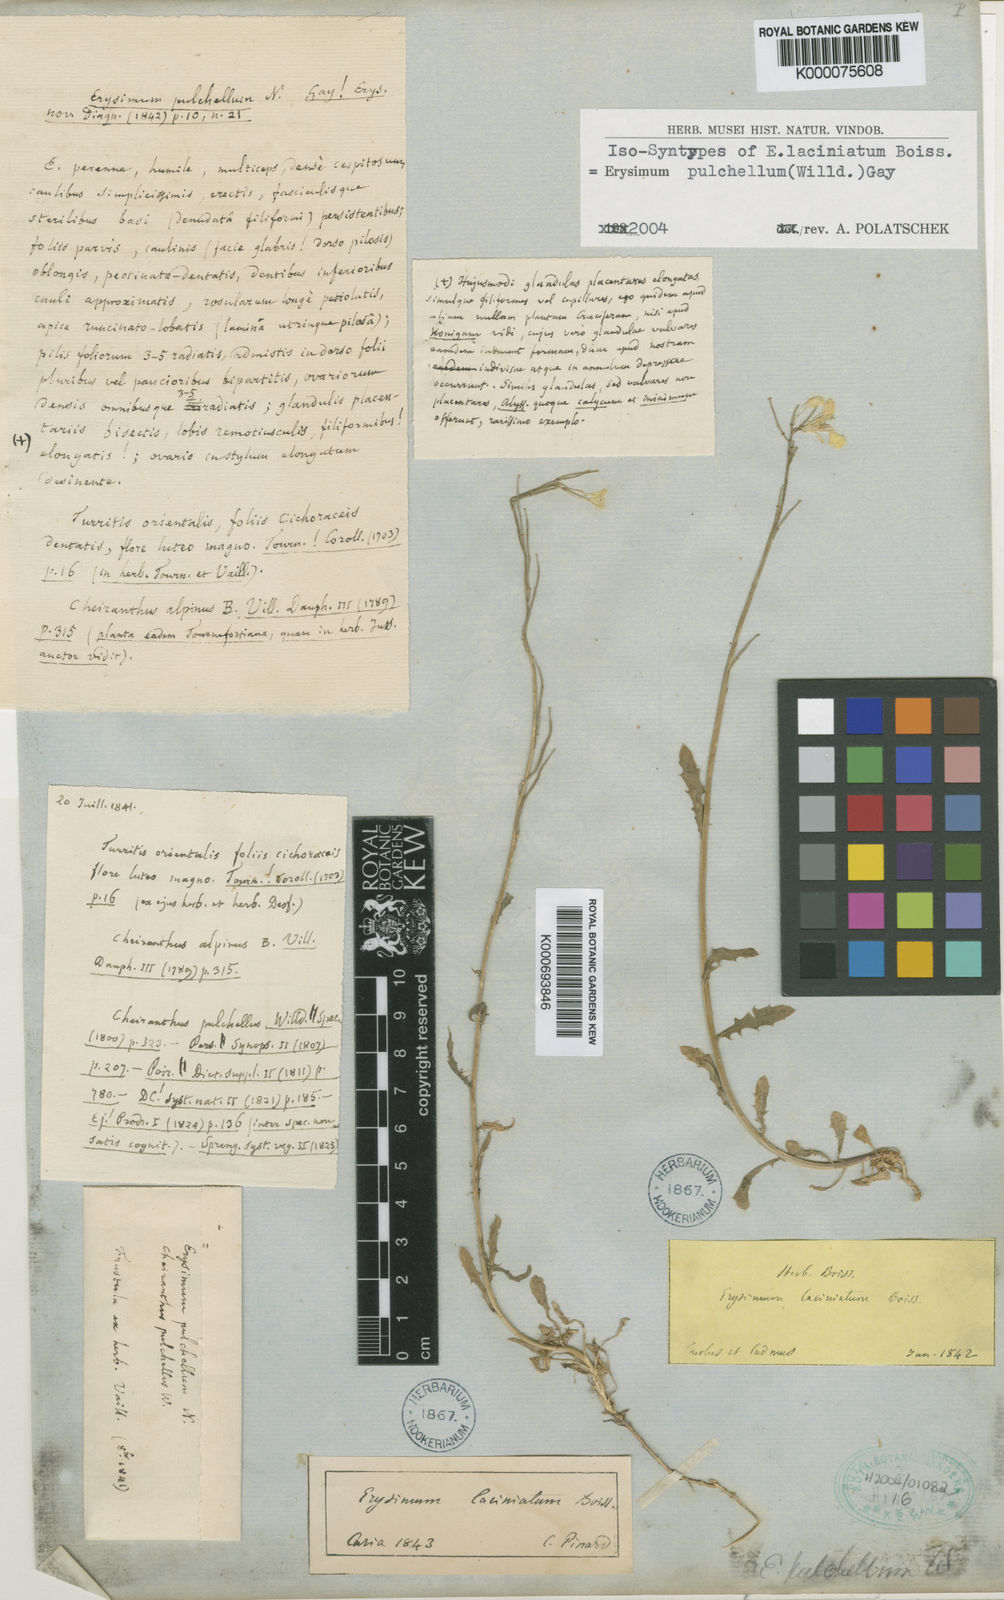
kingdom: Plantae
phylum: Tracheophyta
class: Magnoliopsida
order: Brassicales
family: Brassicaceae
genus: Erysimum
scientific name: Erysimum pulchellum
